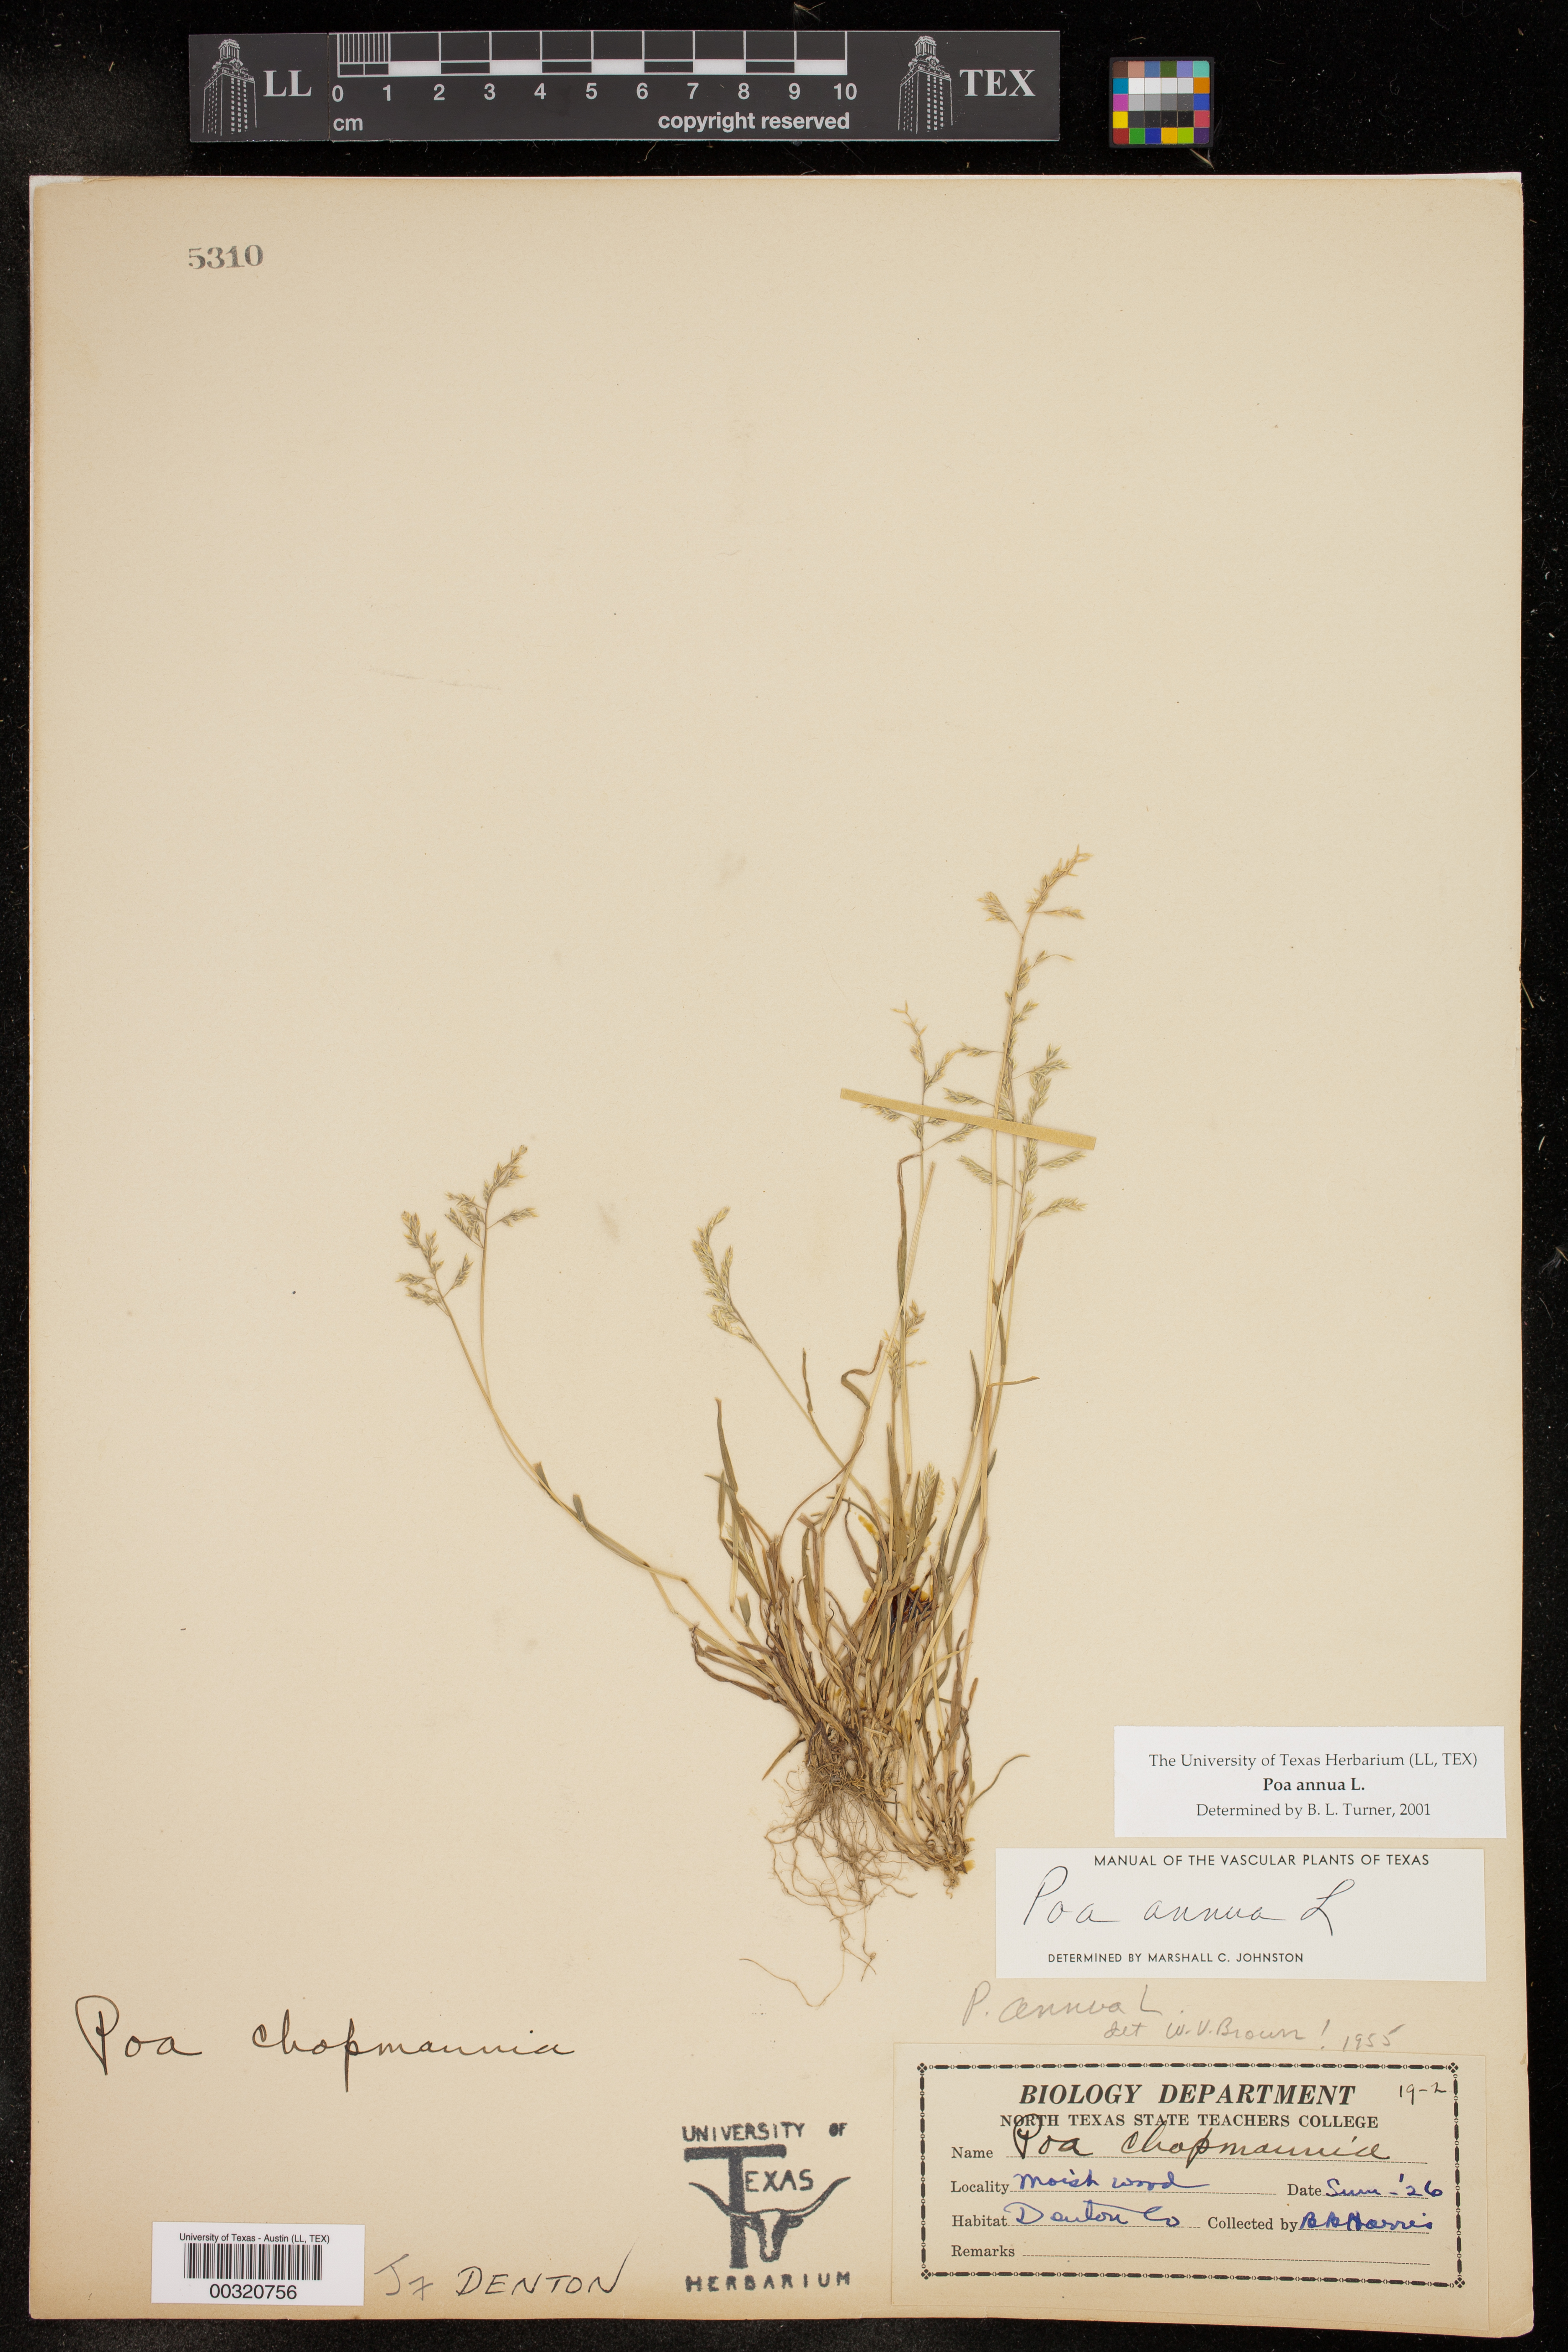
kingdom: Plantae
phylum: Tracheophyta
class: Liliopsida
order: Poales
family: Poaceae
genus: Poa
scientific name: Poa annua
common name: Annual bluegrass
